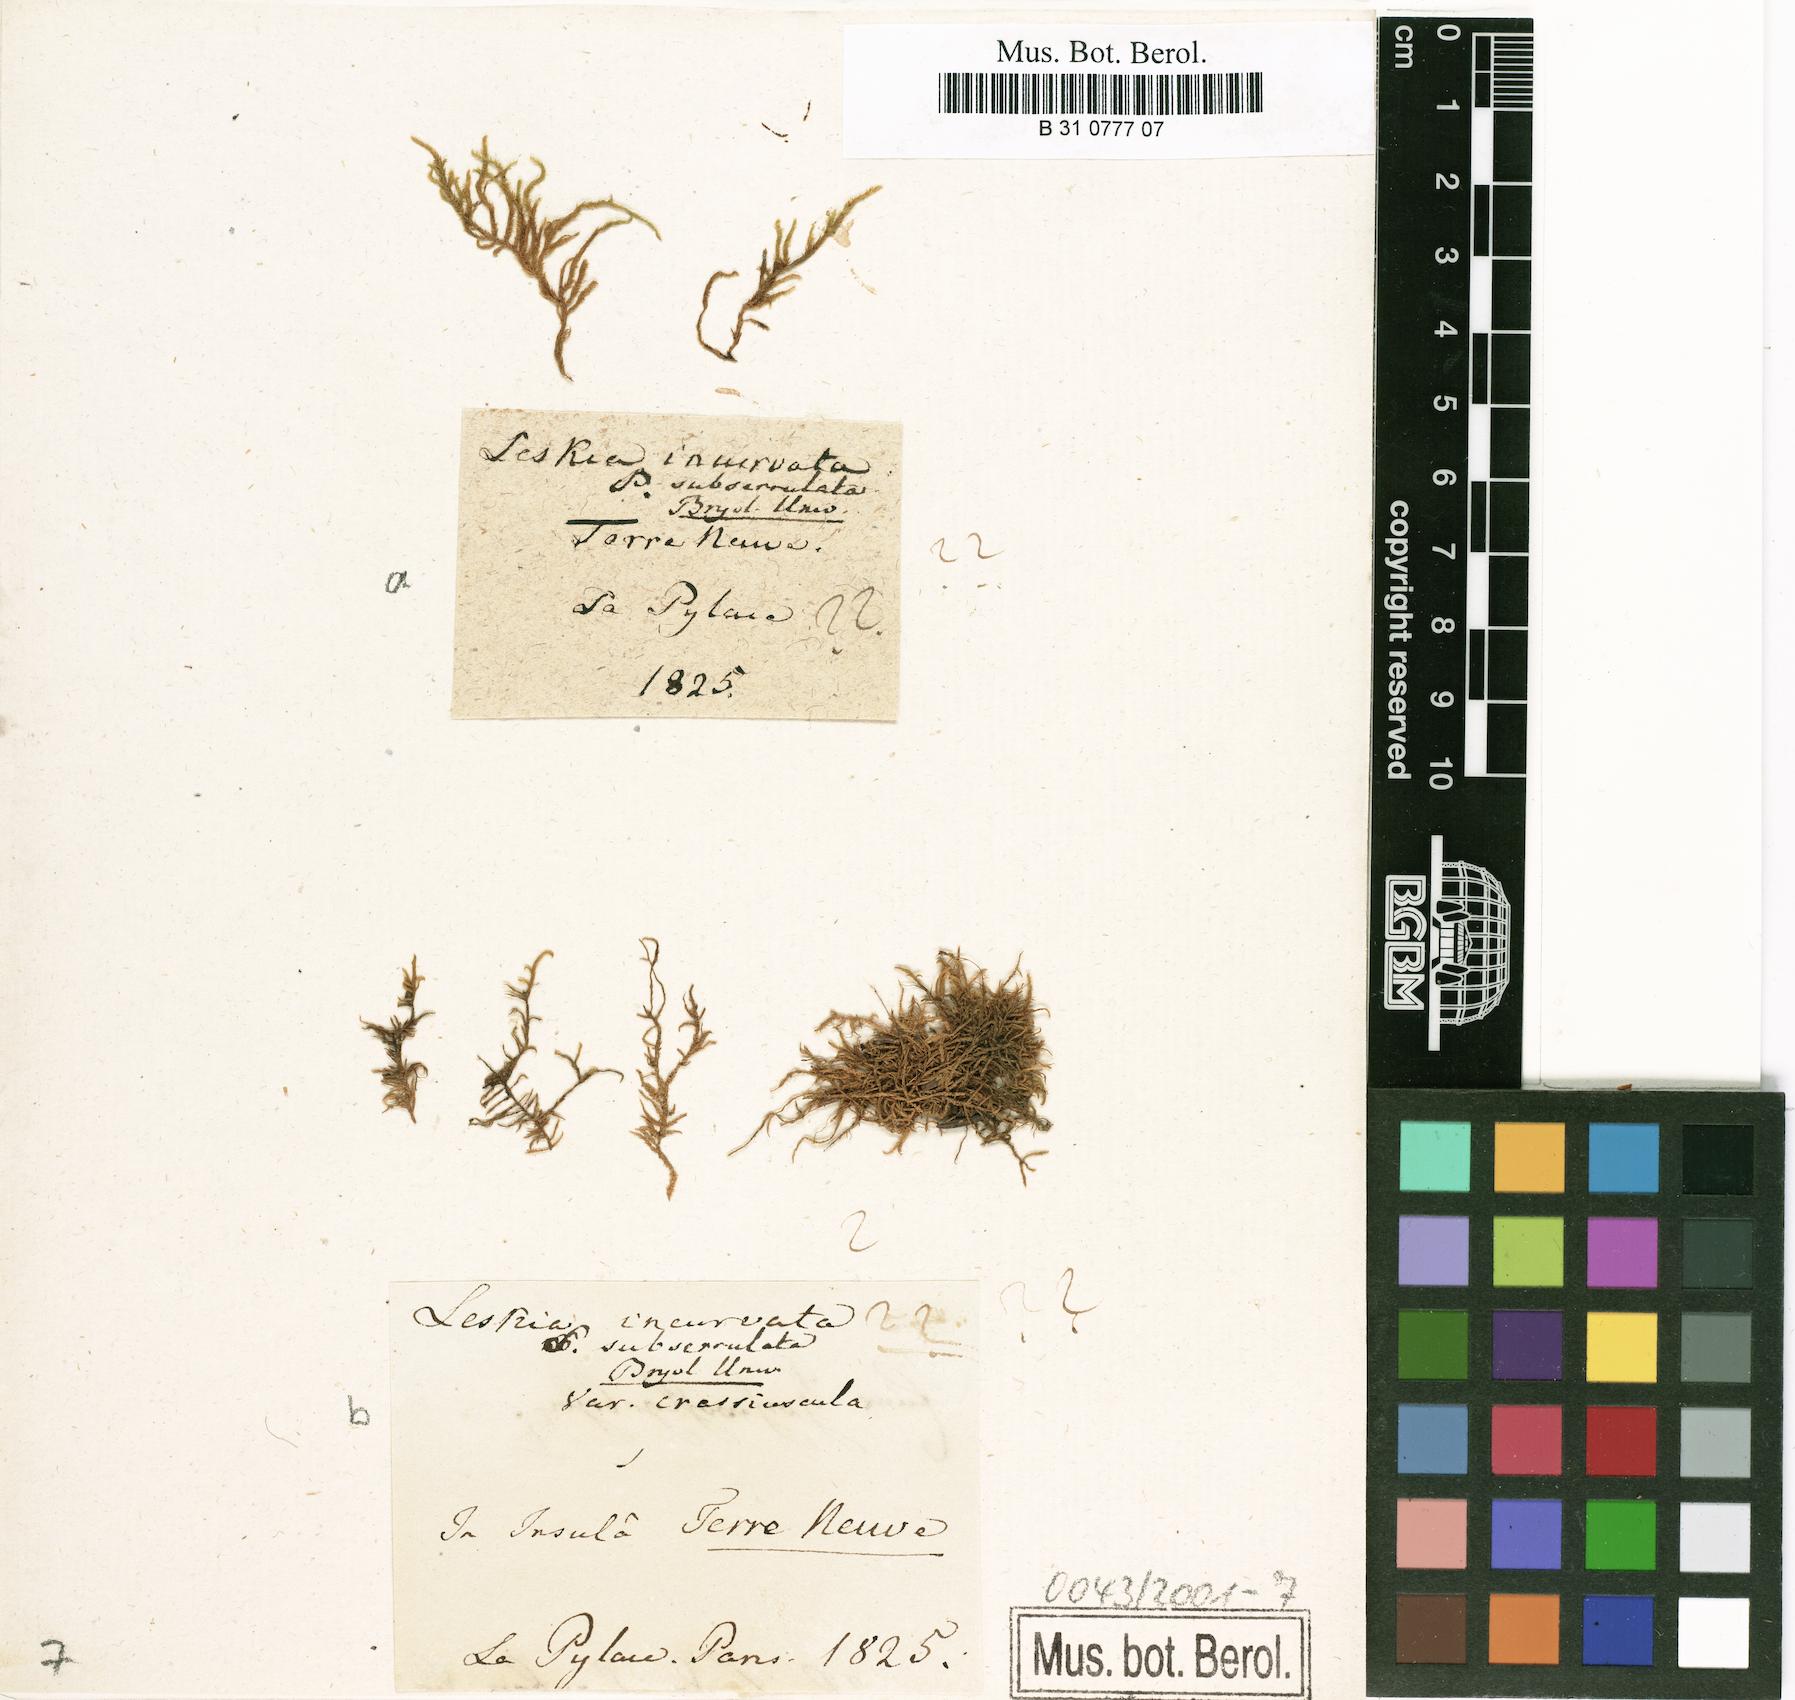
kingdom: Plantae
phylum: Bryophyta
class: Bryopsida
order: Hypnales
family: Pseudoleskeaceae
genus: Lescuraea
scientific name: Lescuraea incurvata
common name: Brown mountain leskea
